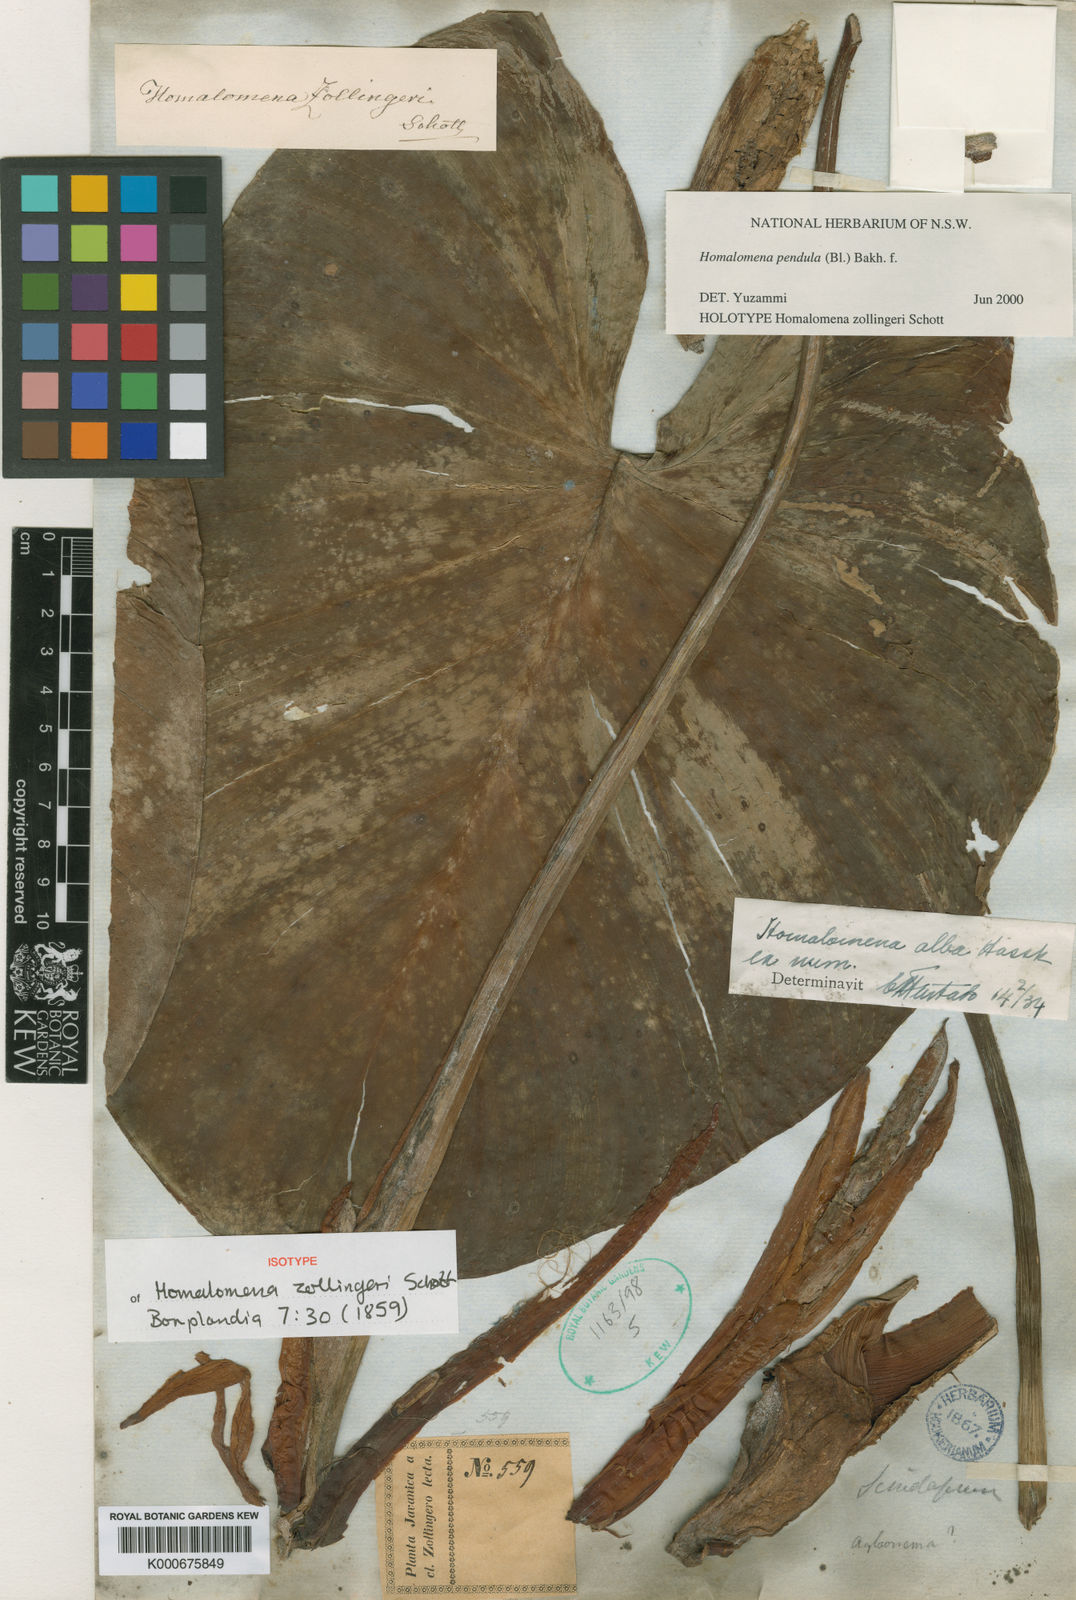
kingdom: Plantae
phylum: Tracheophyta
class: Liliopsida
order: Alismatales
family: Araceae
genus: Homalomena
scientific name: Homalomena zollingeri
